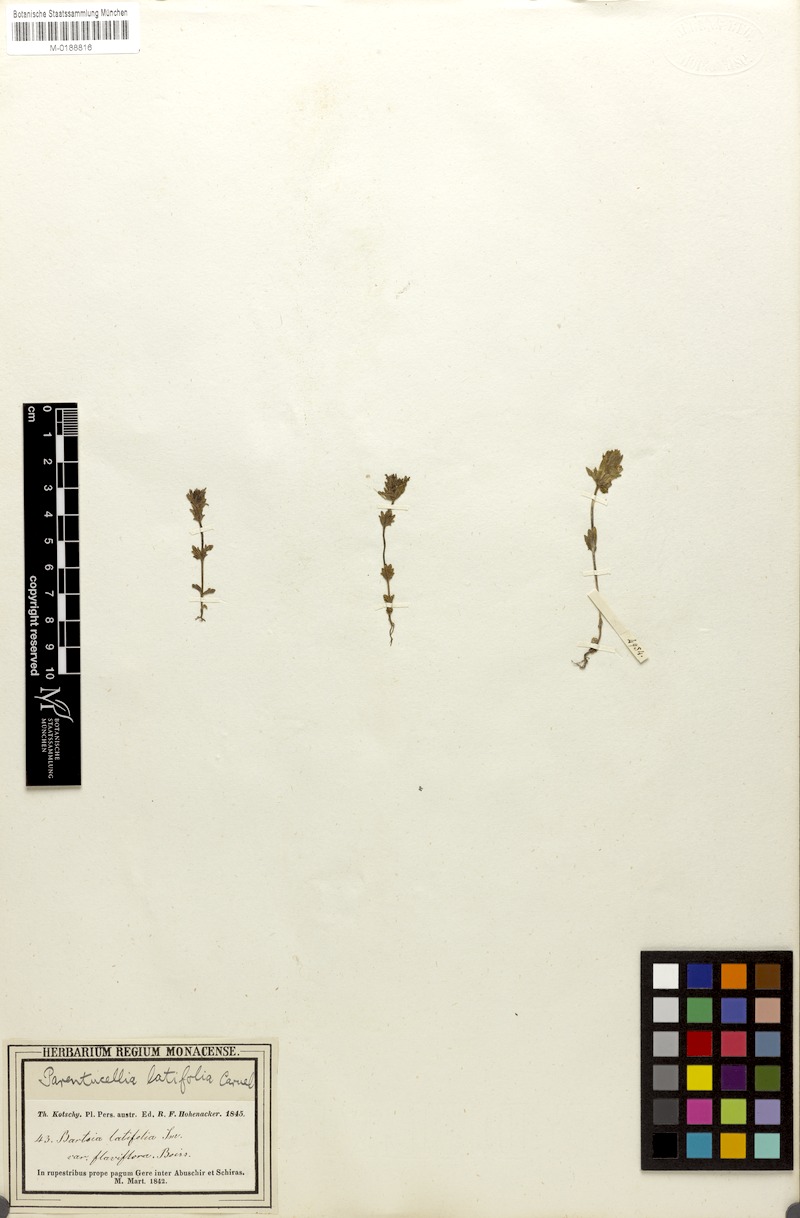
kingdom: Plantae
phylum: Tracheophyta
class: Magnoliopsida
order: Lamiales
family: Orobanchaceae
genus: Parentucellia
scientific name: Parentucellia flaviflora
